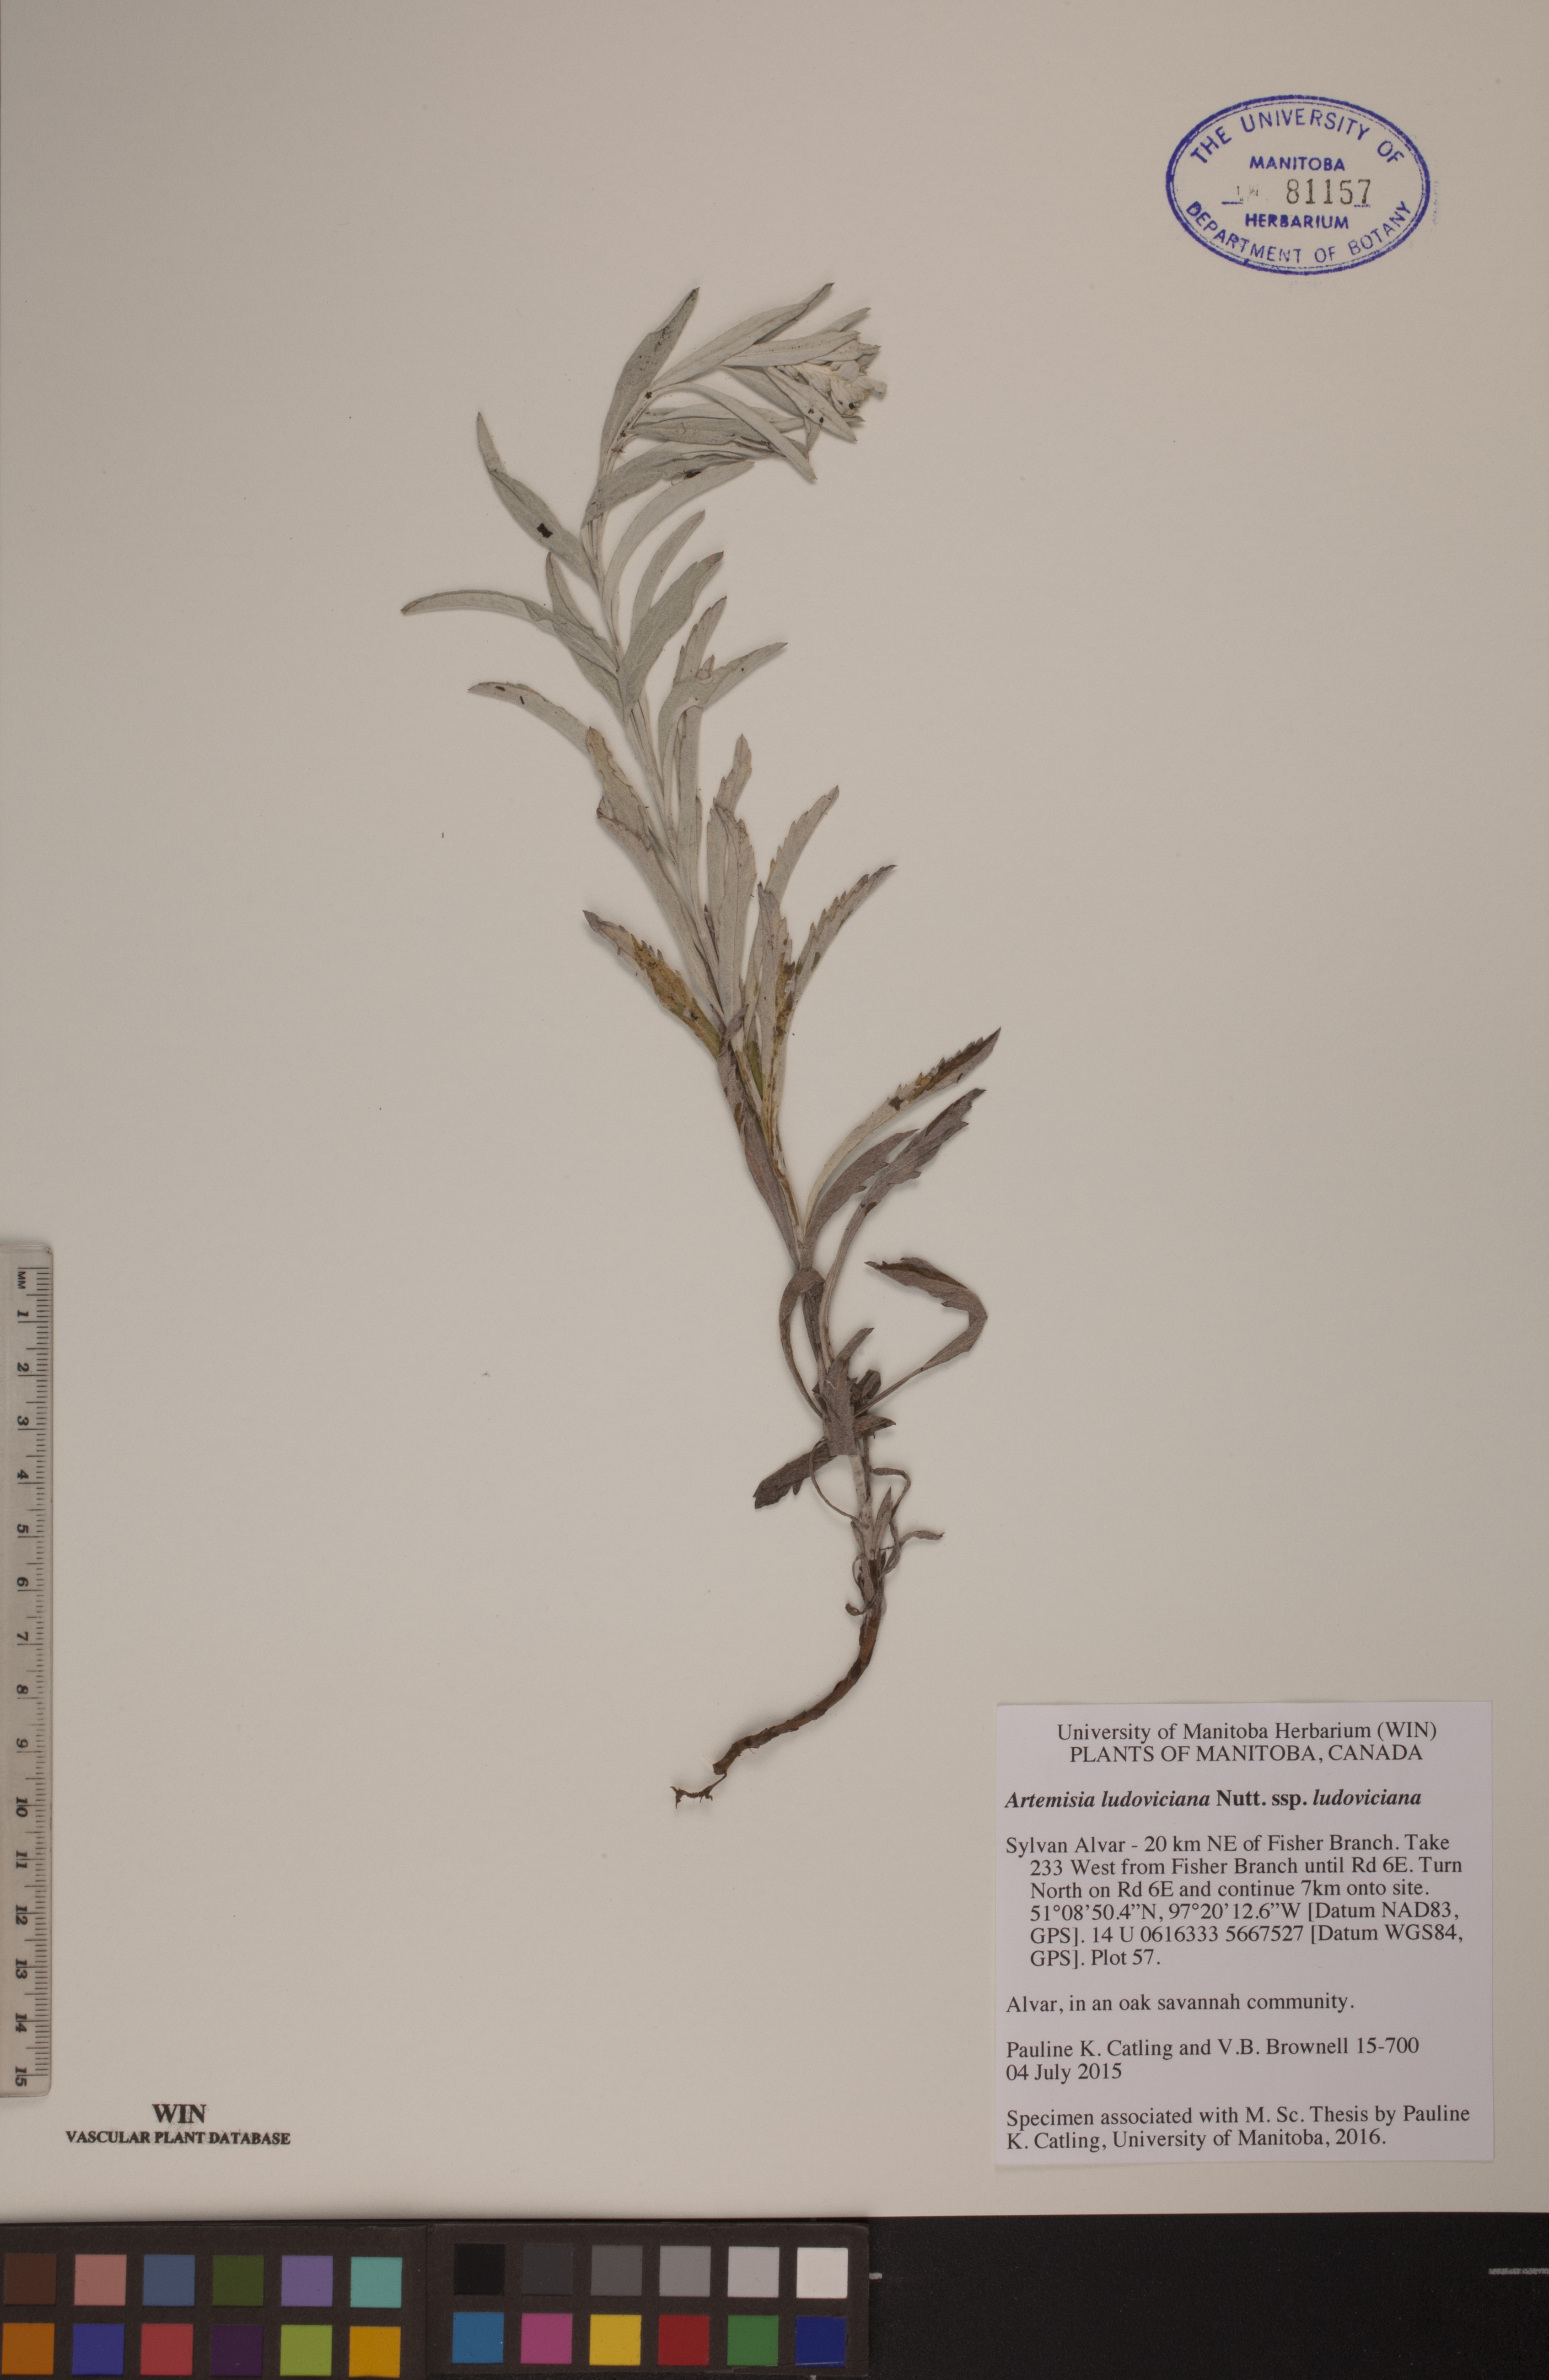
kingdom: Plantae
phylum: Tracheophyta
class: Magnoliopsida
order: Asterales
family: Asteraceae
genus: Artemisia
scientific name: Artemisia ludoviciana
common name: Western mugwort
